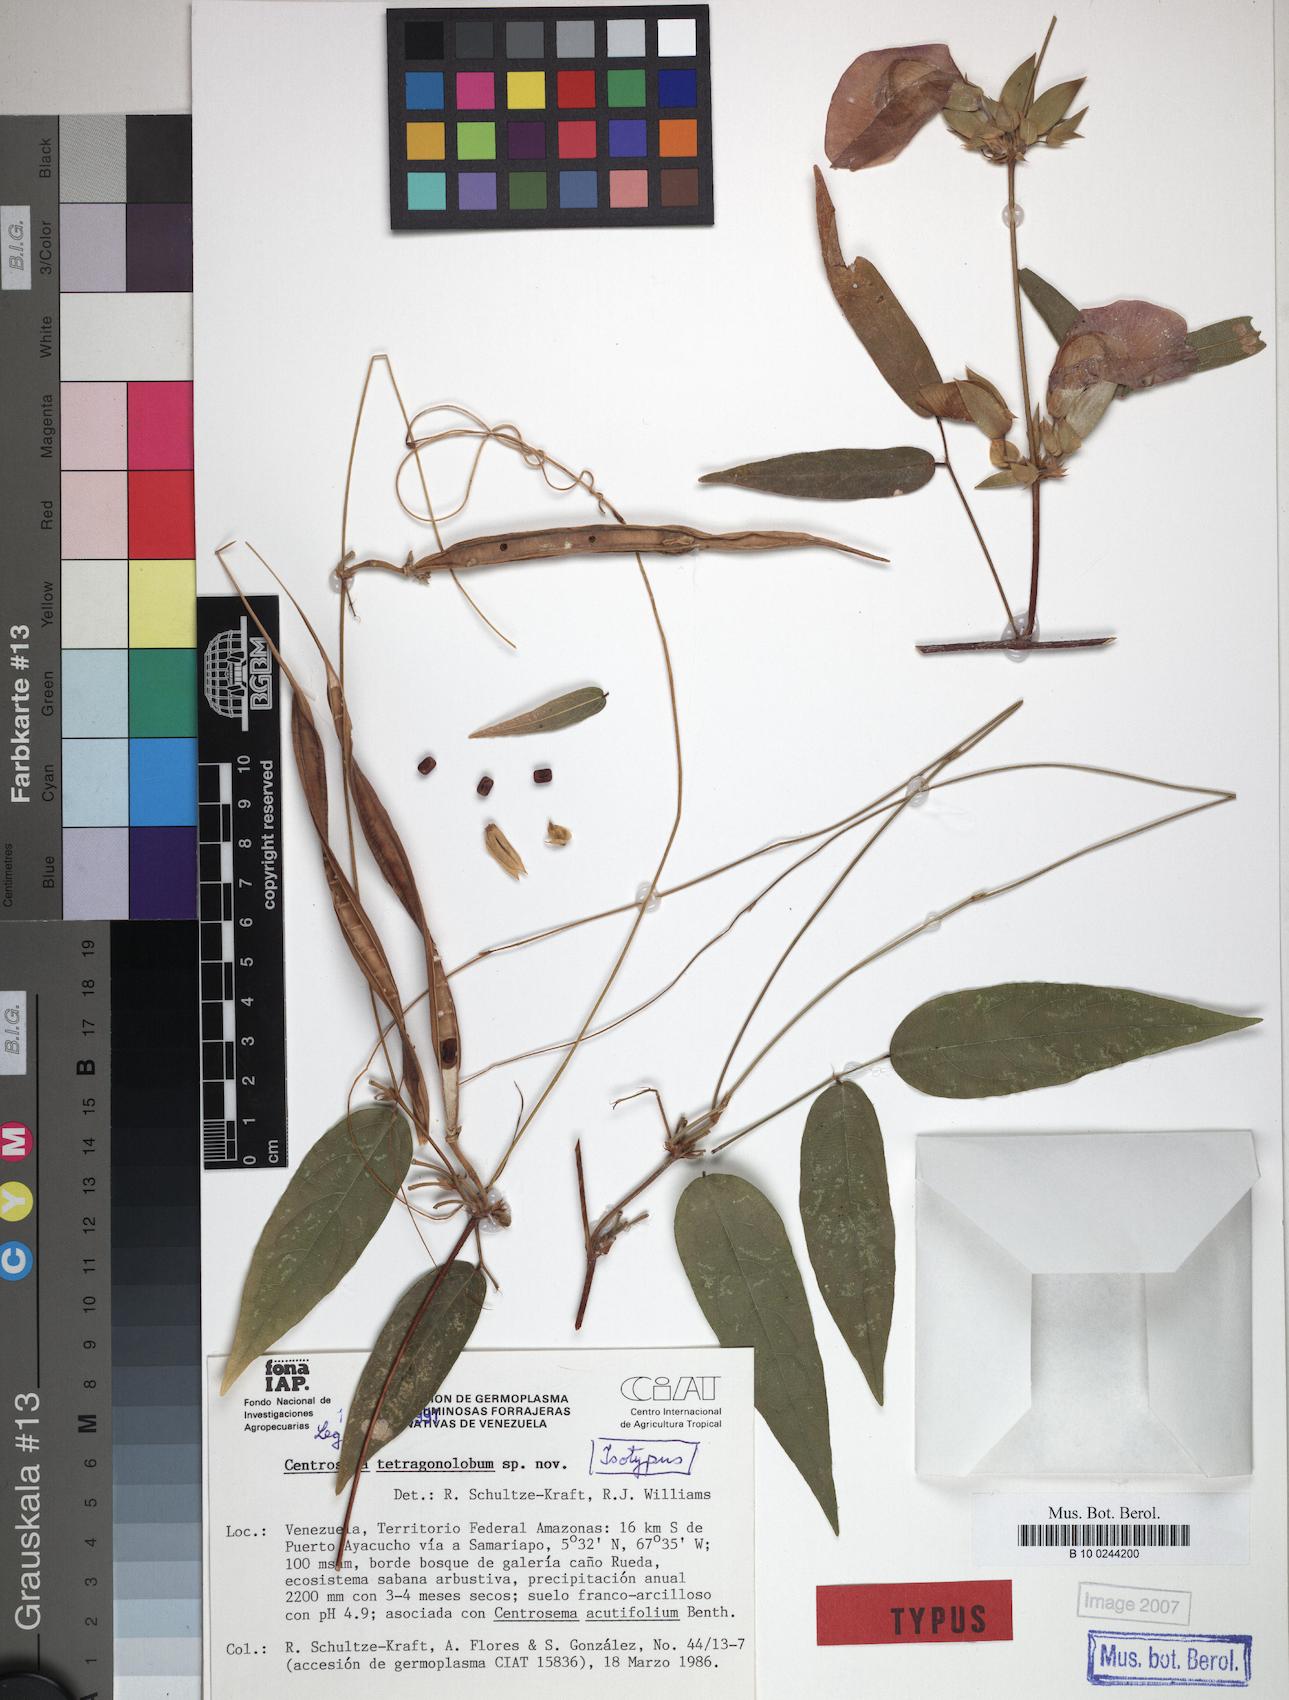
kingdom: Plantae
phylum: Tracheophyta
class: Magnoliopsida
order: Fabales
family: Fabaceae
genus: Centrosema
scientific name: Centrosema tetragonolobum
